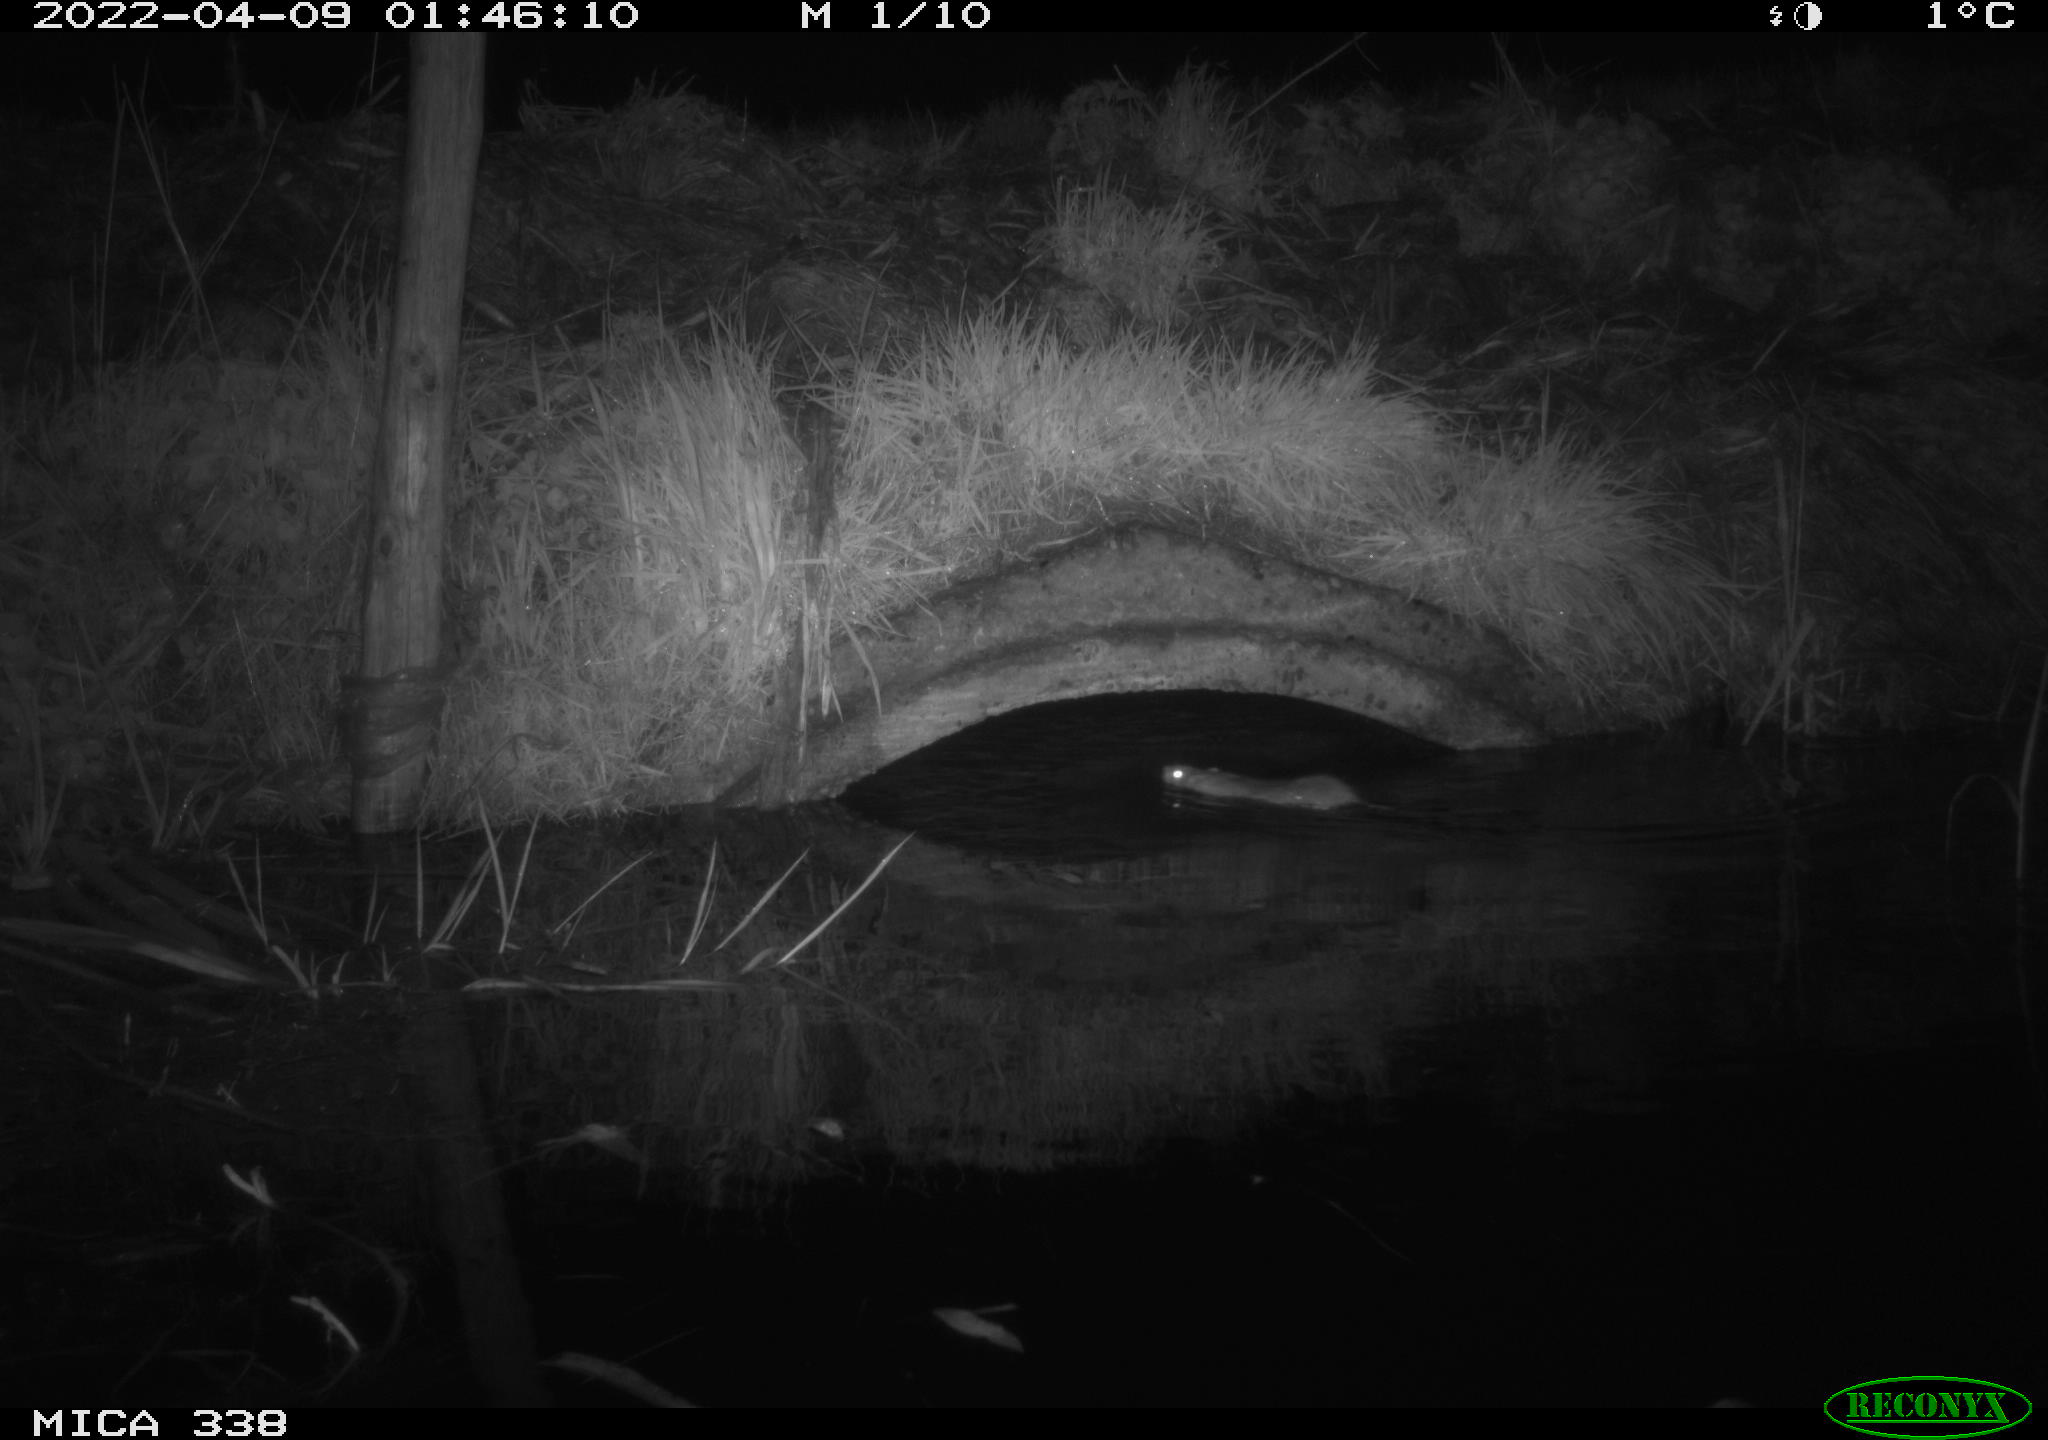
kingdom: Animalia
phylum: Chordata
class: Mammalia
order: Rodentia
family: Muridae
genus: Rattus
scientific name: Rattus norvegicus
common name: Brown rat
